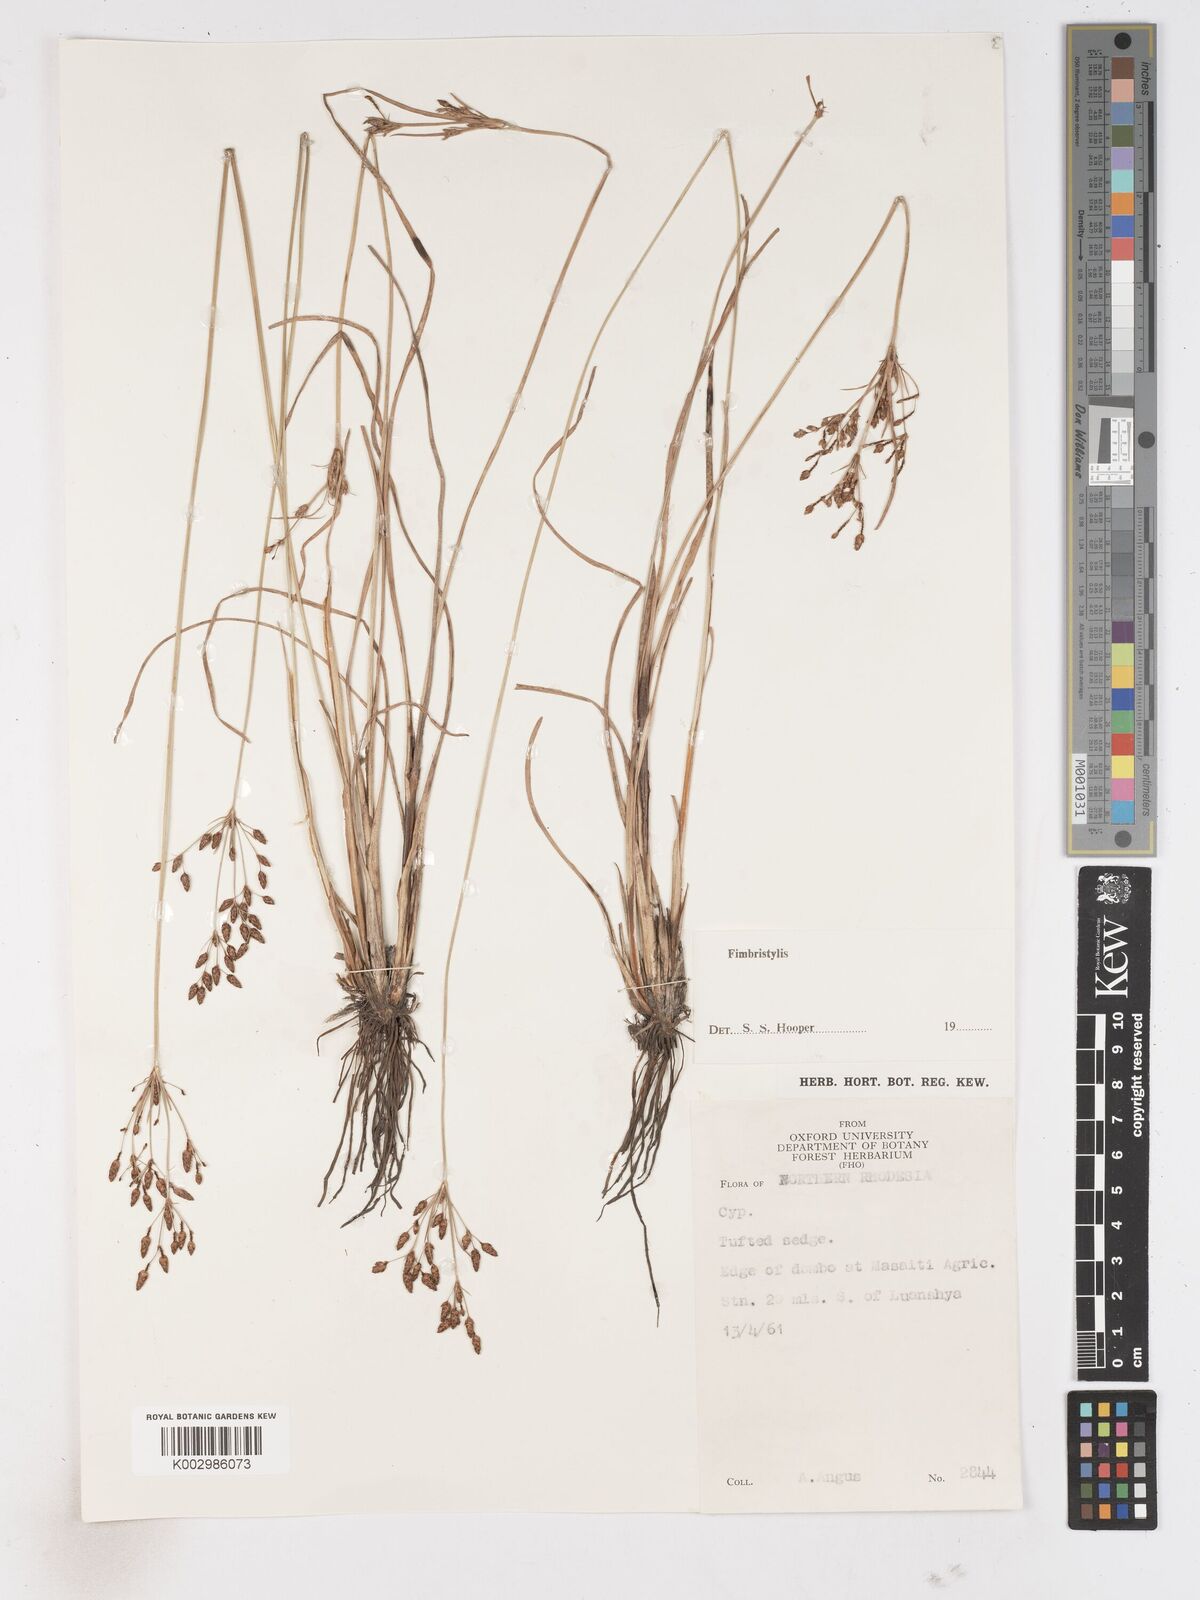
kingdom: Plantae
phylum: Tracheophyta
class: Liliopsida
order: Poales
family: Cyperaceae
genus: Fimbristylis
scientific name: Fimbristylis
